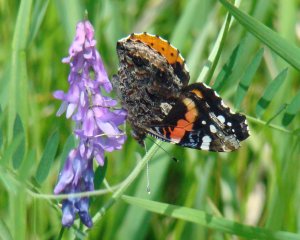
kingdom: Animalia
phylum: Arthropoda
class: Insecta
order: Lepidoptera
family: Nymphalidae
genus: Vanessa
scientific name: Vanessa atalanta
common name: Red Admiral
